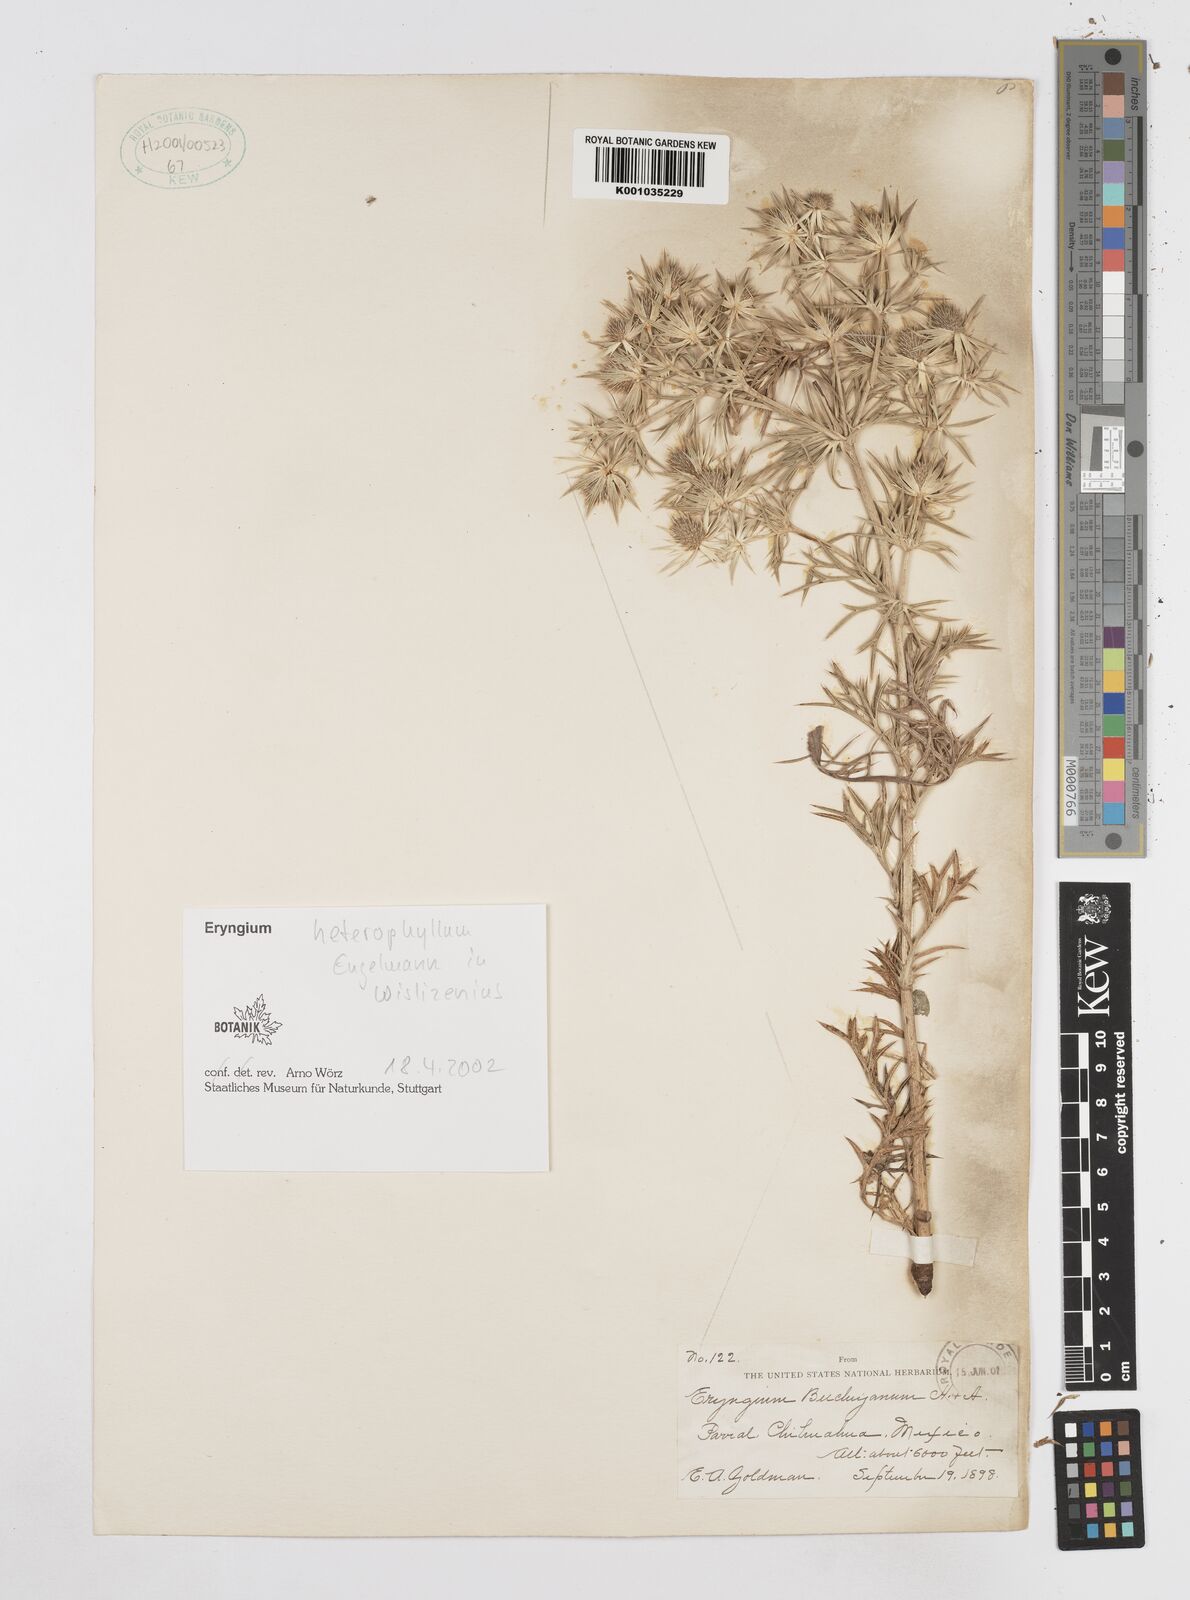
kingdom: Plantae
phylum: Tracheophyta
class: Magnoliopsida
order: Apiales
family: Apiaceae
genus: Eryngium
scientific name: Eryngium heterophyllum
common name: Mexican thistle
